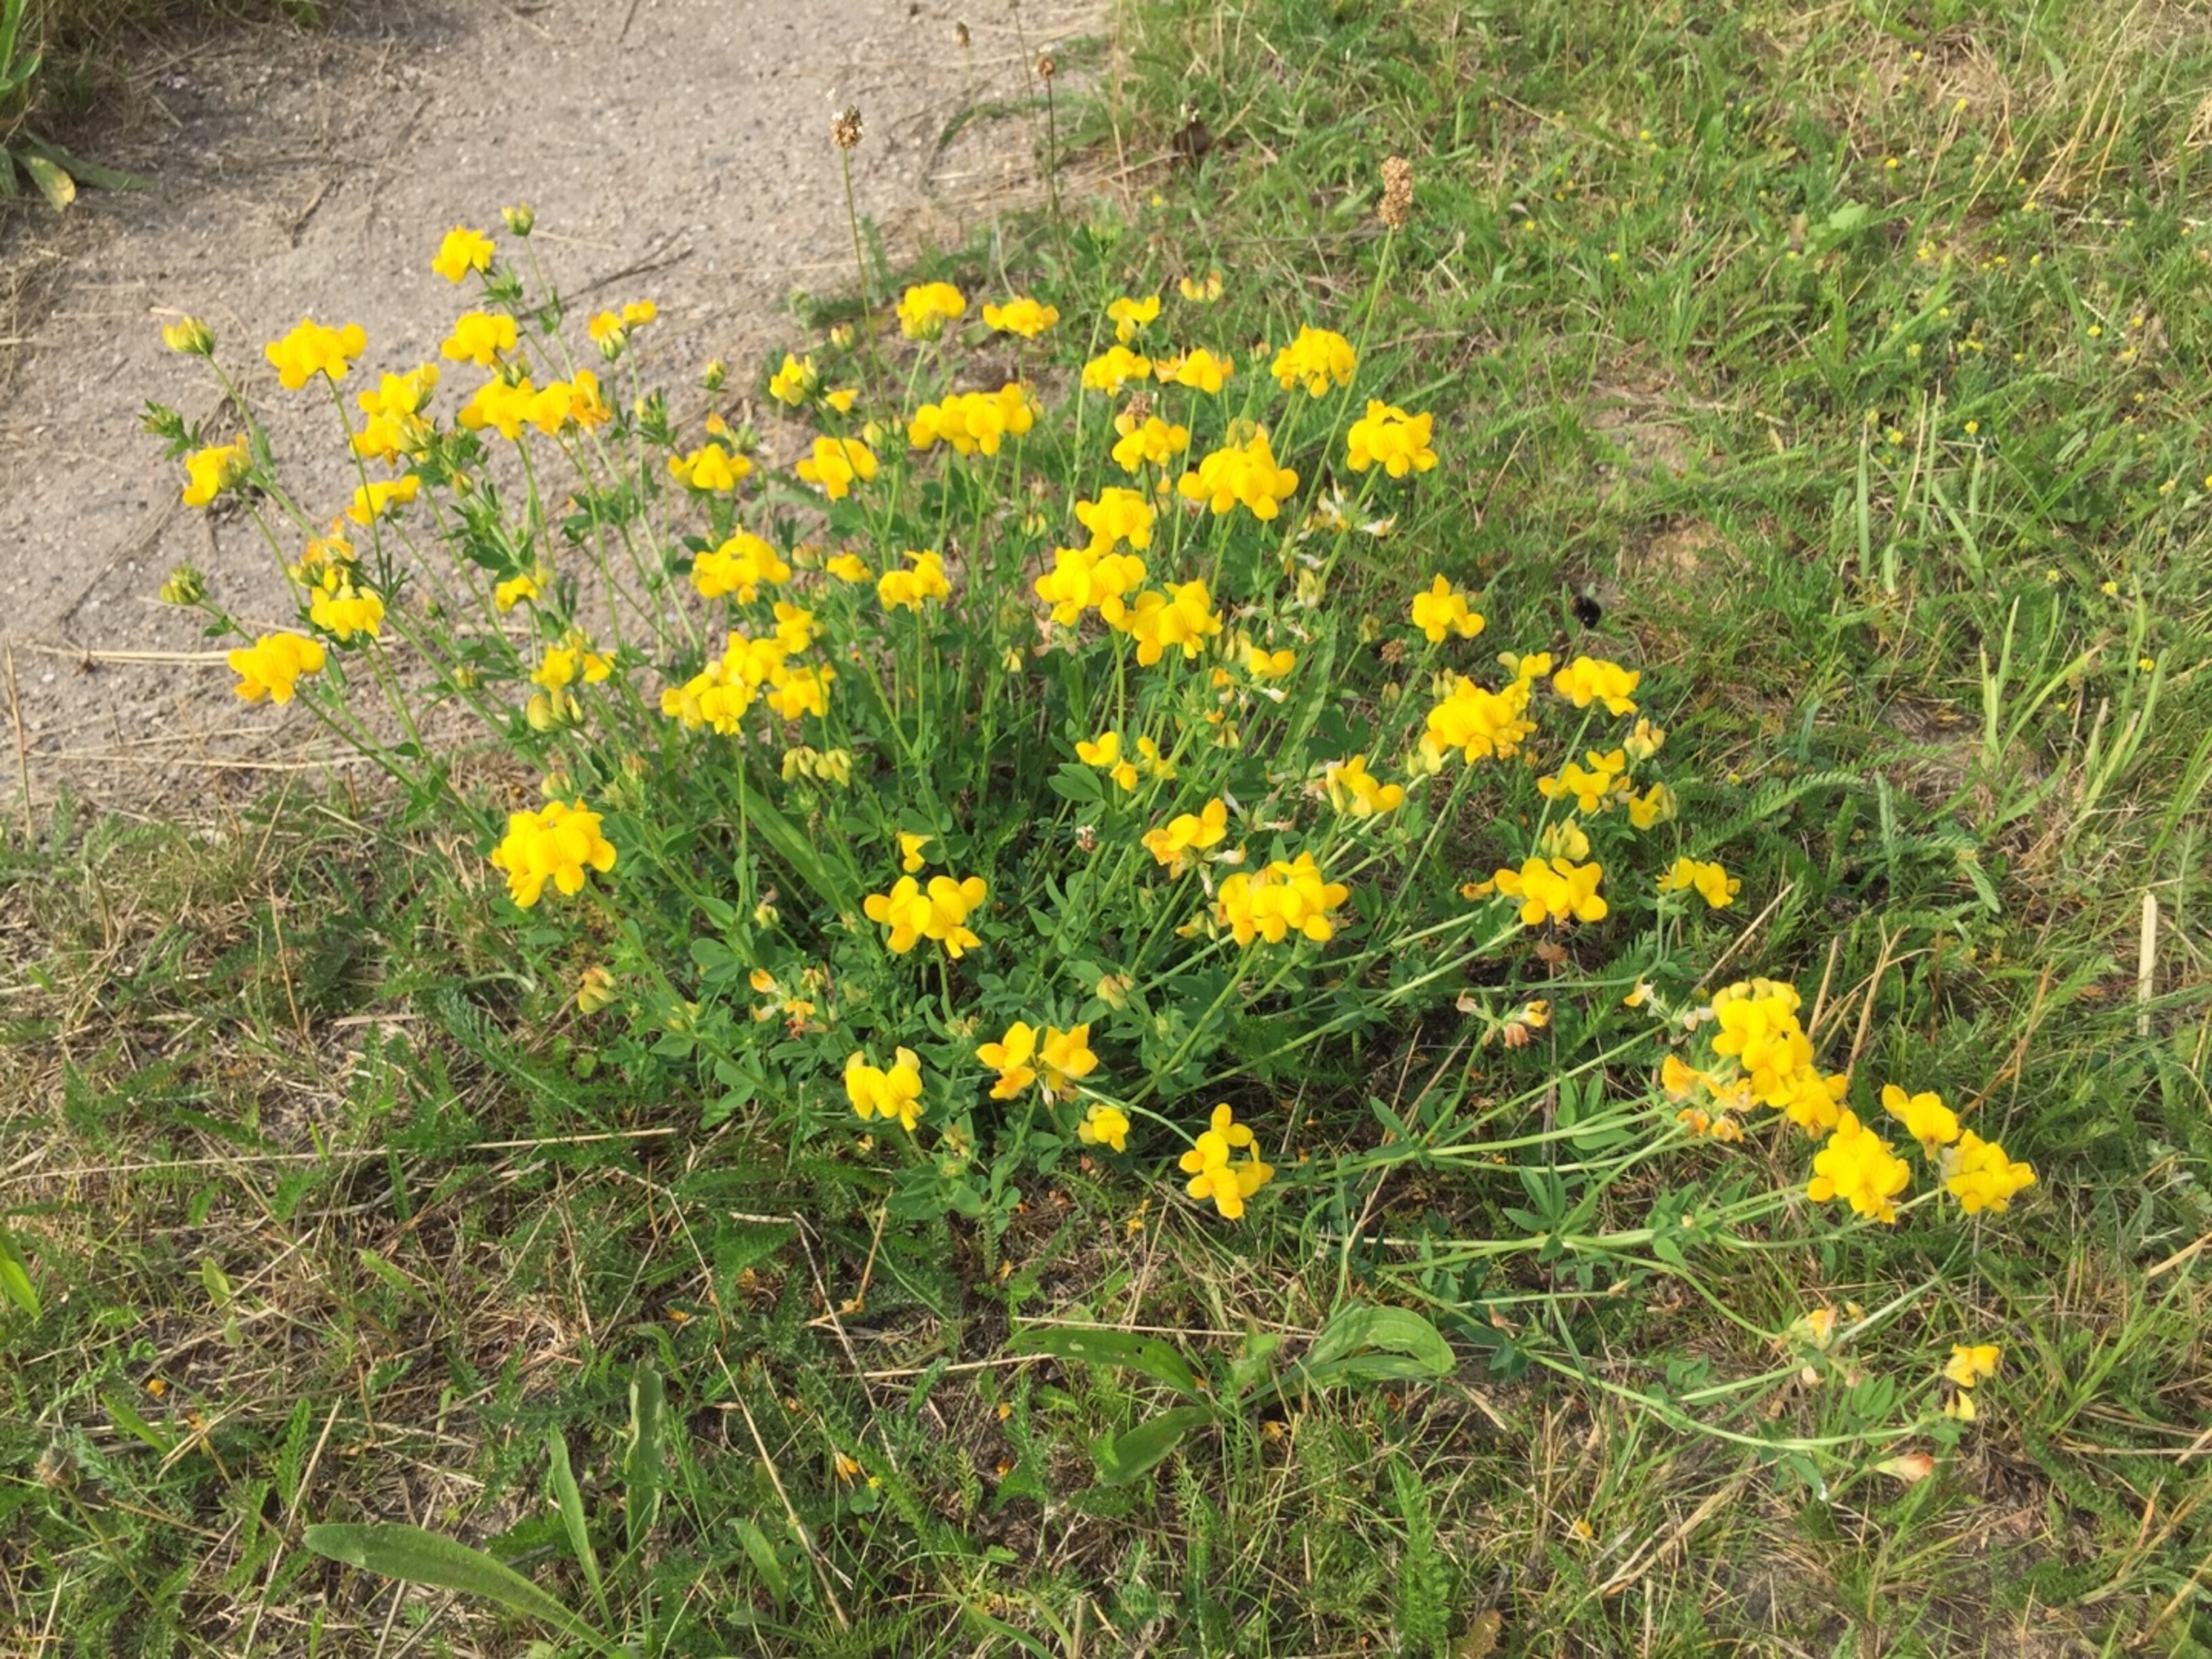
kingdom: Plantae
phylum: Tracheophyta
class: Magnoliopsida
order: Fabales
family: Fabaceae
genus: Lotus
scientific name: Lotus corniculatus
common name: Almindelig kællingetand
